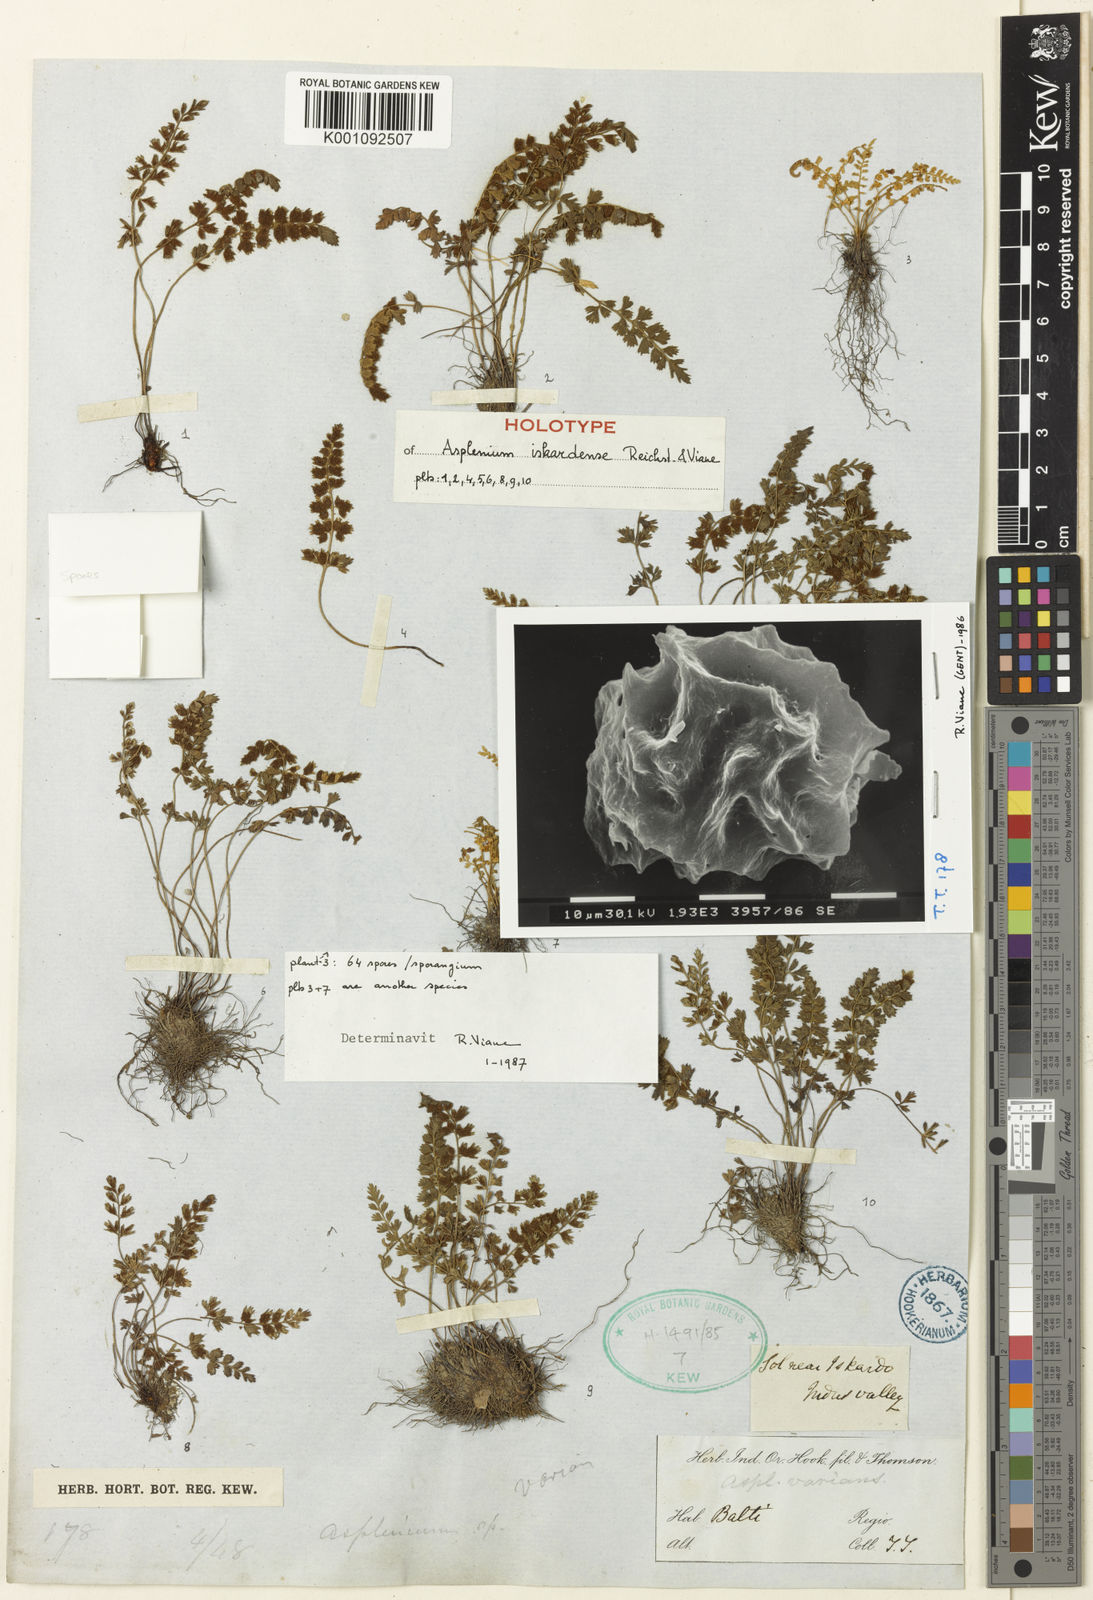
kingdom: Plantae
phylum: Tracheophyta
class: Polypodiopsida
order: Polypodiales
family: Aspleniaceae
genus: Asplenium
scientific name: Asplenium daghestanicum
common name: Dagestanian spleenwort
